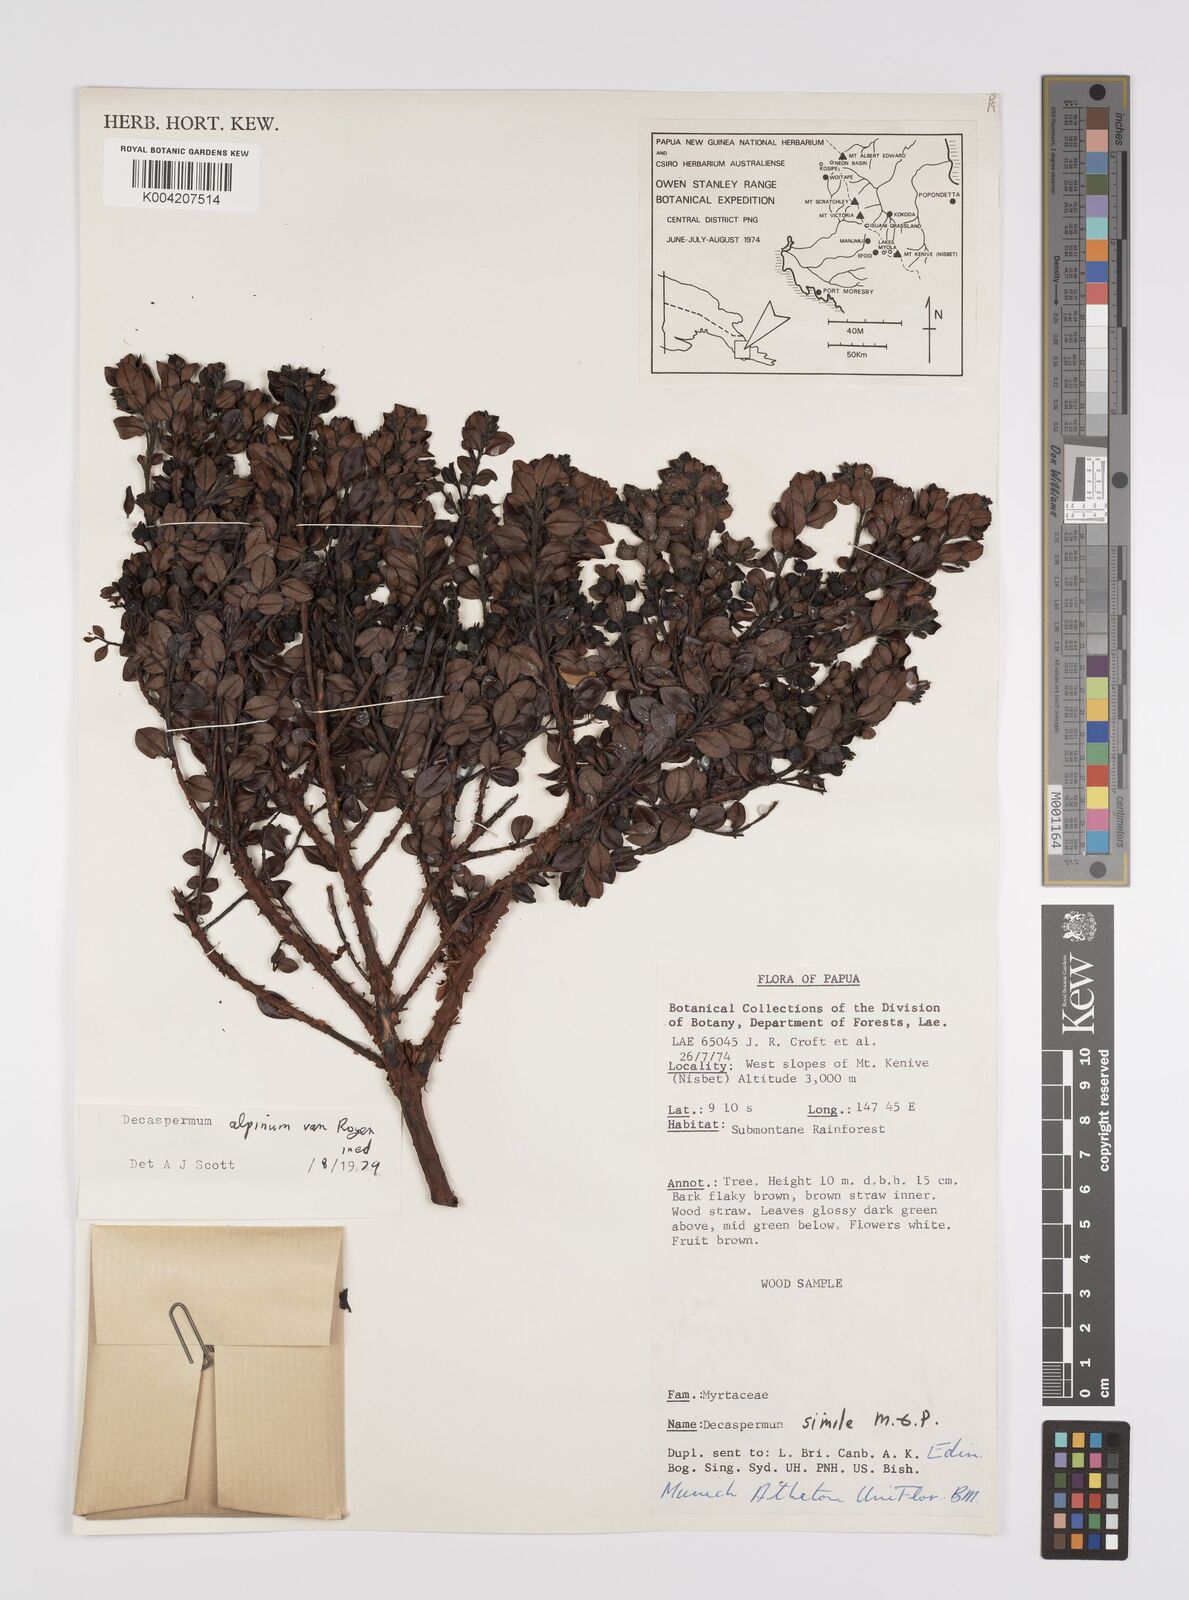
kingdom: Plantae
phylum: Tracheophyta
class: Magnoliopsida
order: Myrtales
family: Myrtaceae
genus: Decaspermum
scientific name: Decaspermum alpinum
